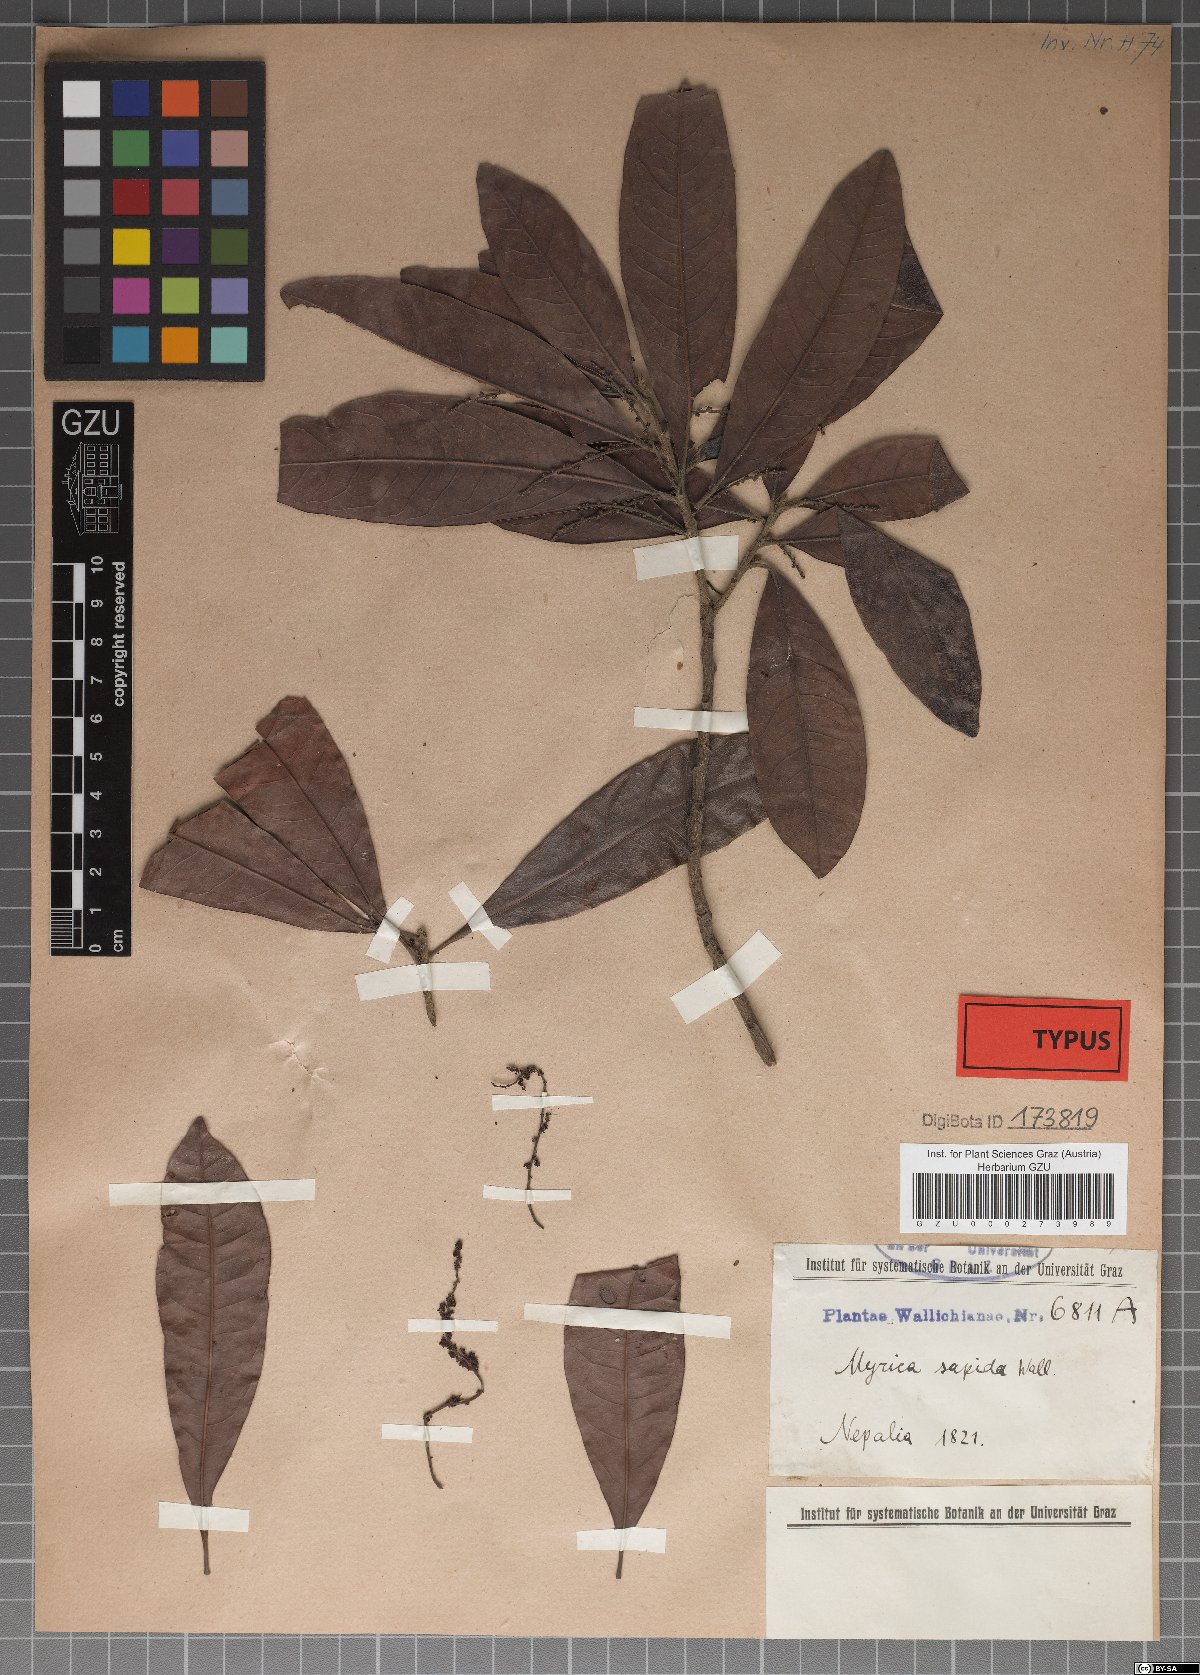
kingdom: Plantae
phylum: Tracheophyta
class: Magnoliopsida
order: Fagales
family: Myricaceae
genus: Morella
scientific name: Morella esculenta
